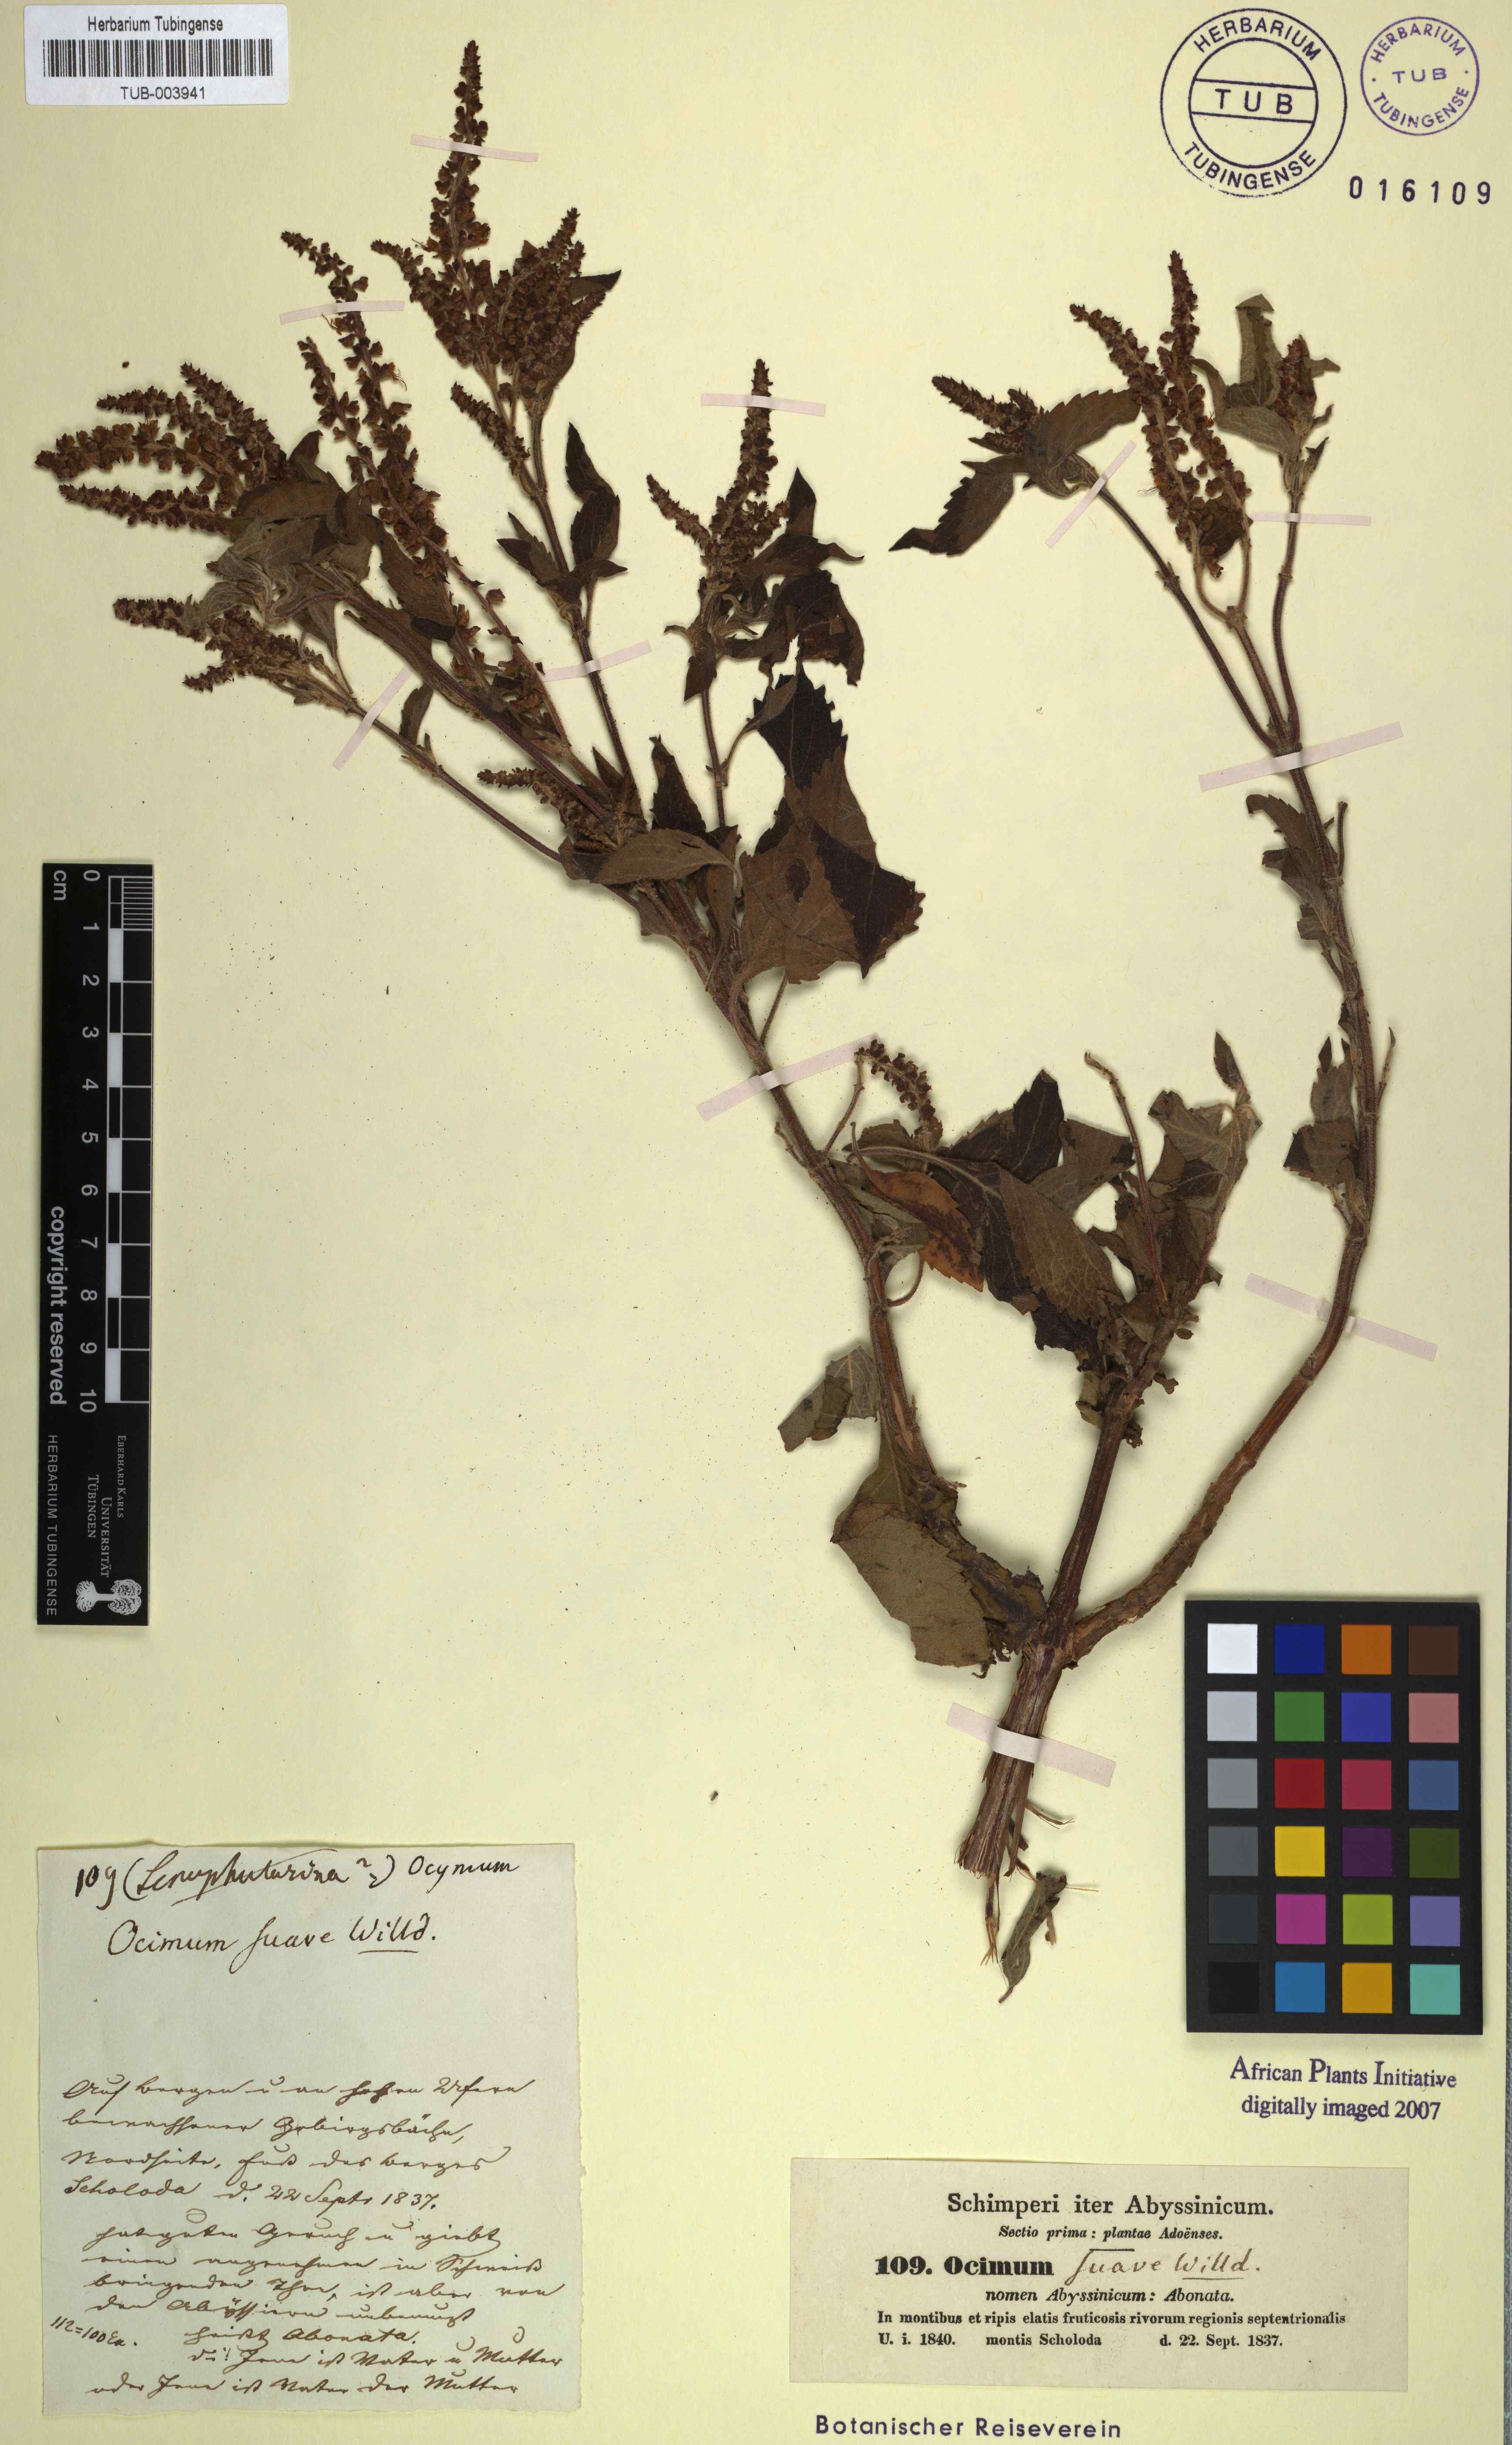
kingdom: Plantae
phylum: Tracheophyta
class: Magnoliopsida
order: Lamiales
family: Lamiaceae
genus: Ocimum
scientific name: Ocimum gratissimum
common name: African basil
